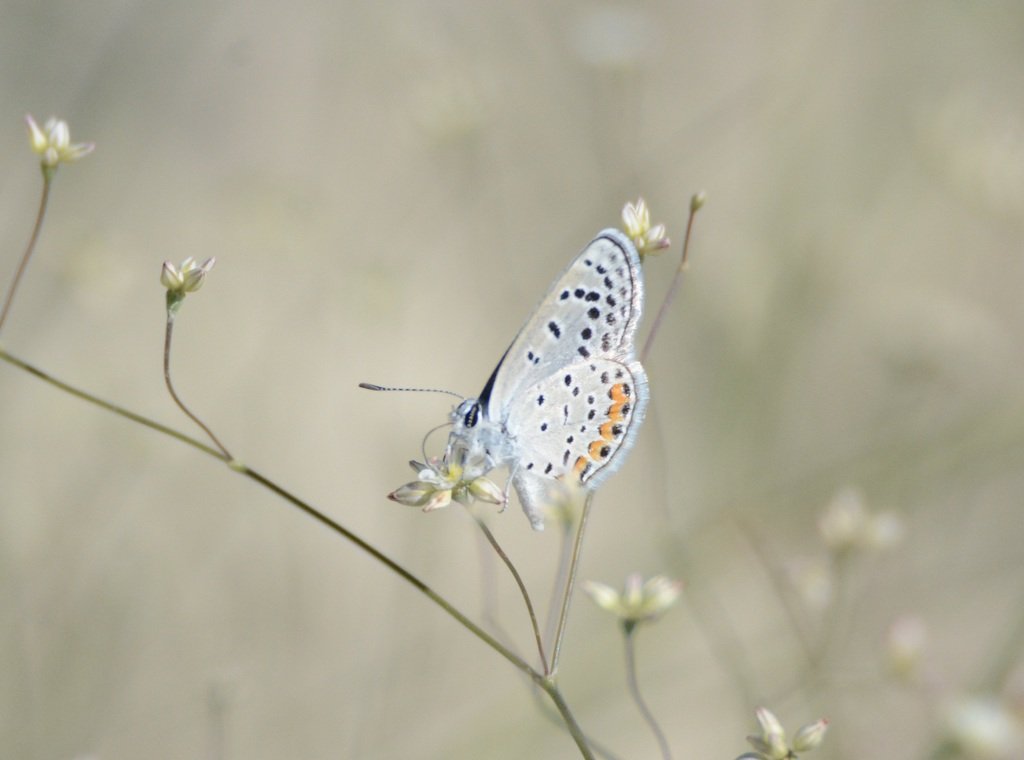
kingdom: Animalia
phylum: Arthropoda
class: Insecta
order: Lepidoptera
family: Lycaenidae
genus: Plebejus
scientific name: Plebejus acmon
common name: Acmon Blue
